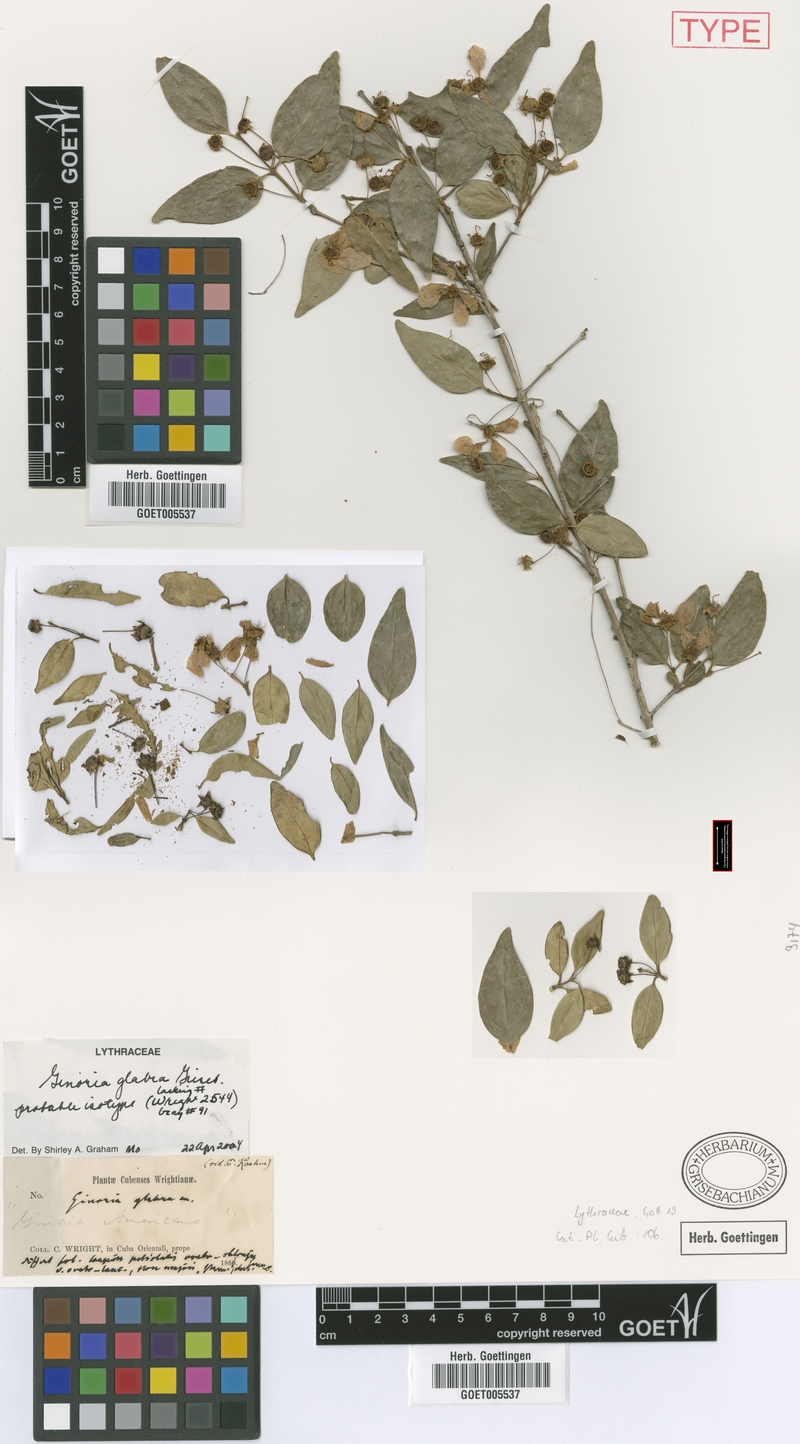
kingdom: Plantae
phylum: Tracheophyta
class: Magnoliopsida
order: Myrtales
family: Lythraceae
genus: Ginoria
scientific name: Ginoria glabra
